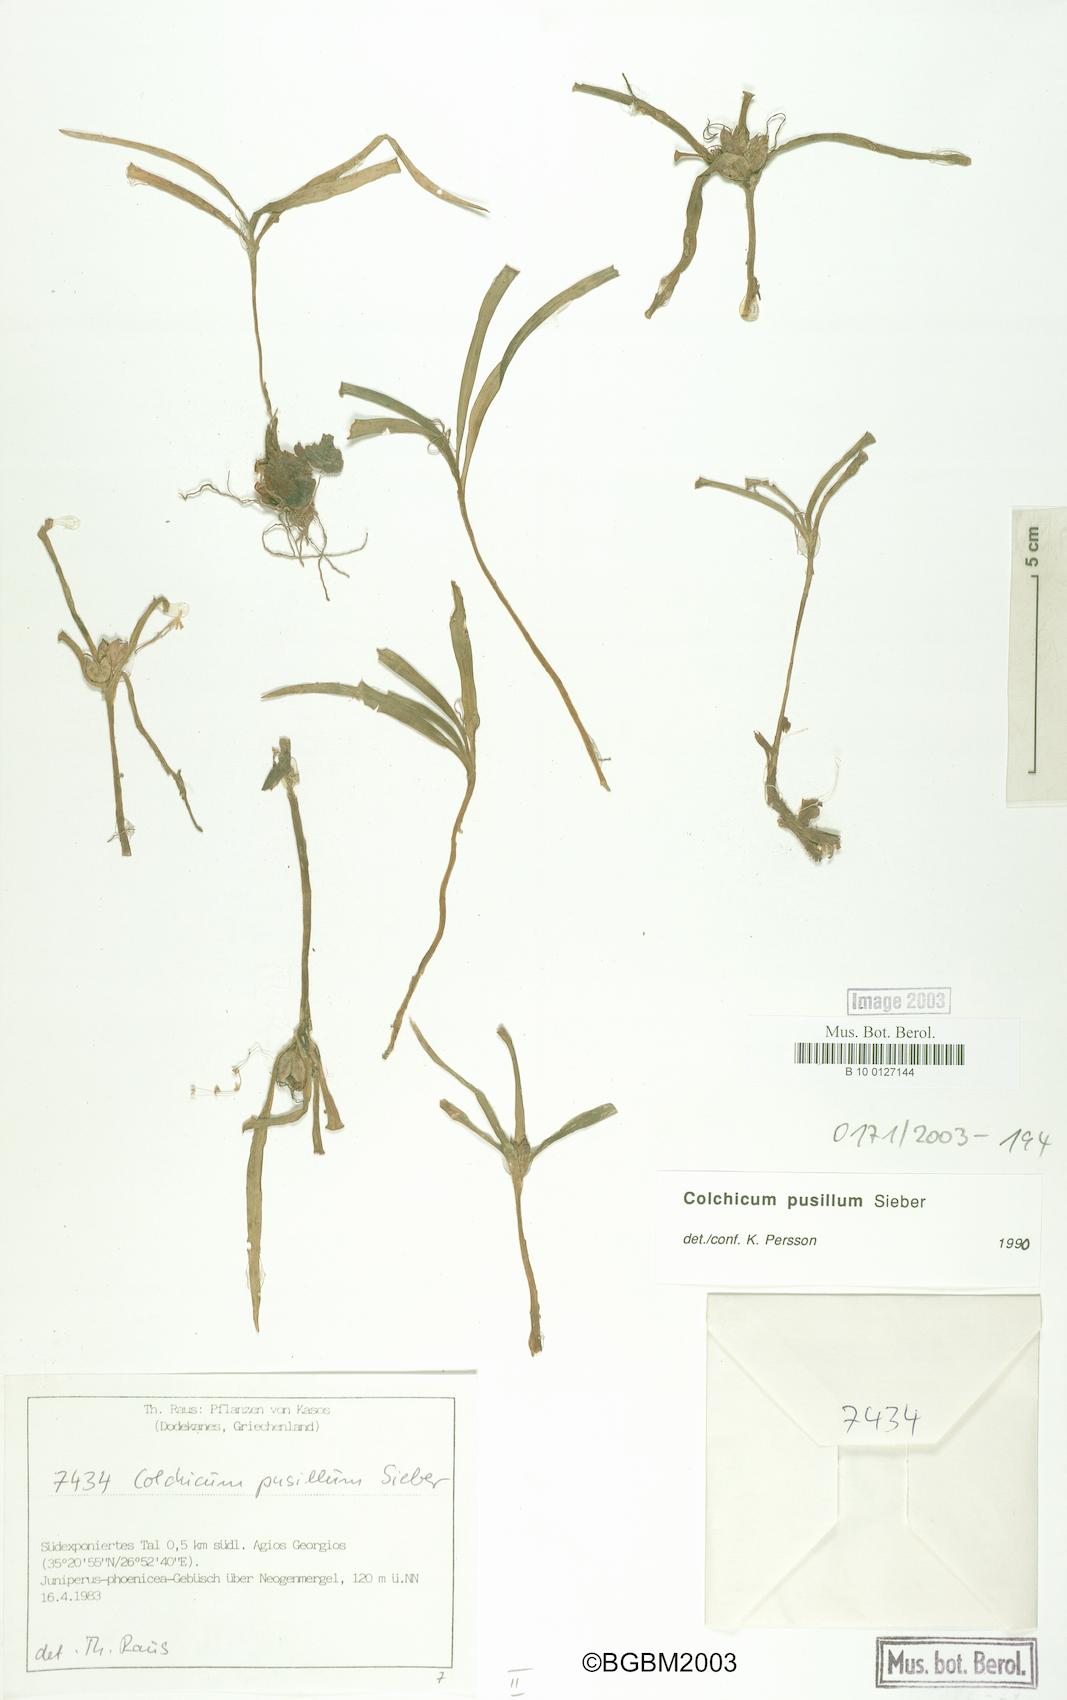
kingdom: Plantae
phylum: Tracheophyta
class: Liliopsida
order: Liliales
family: Colchicaceae
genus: Colchicum
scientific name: Colchicum pusillum
